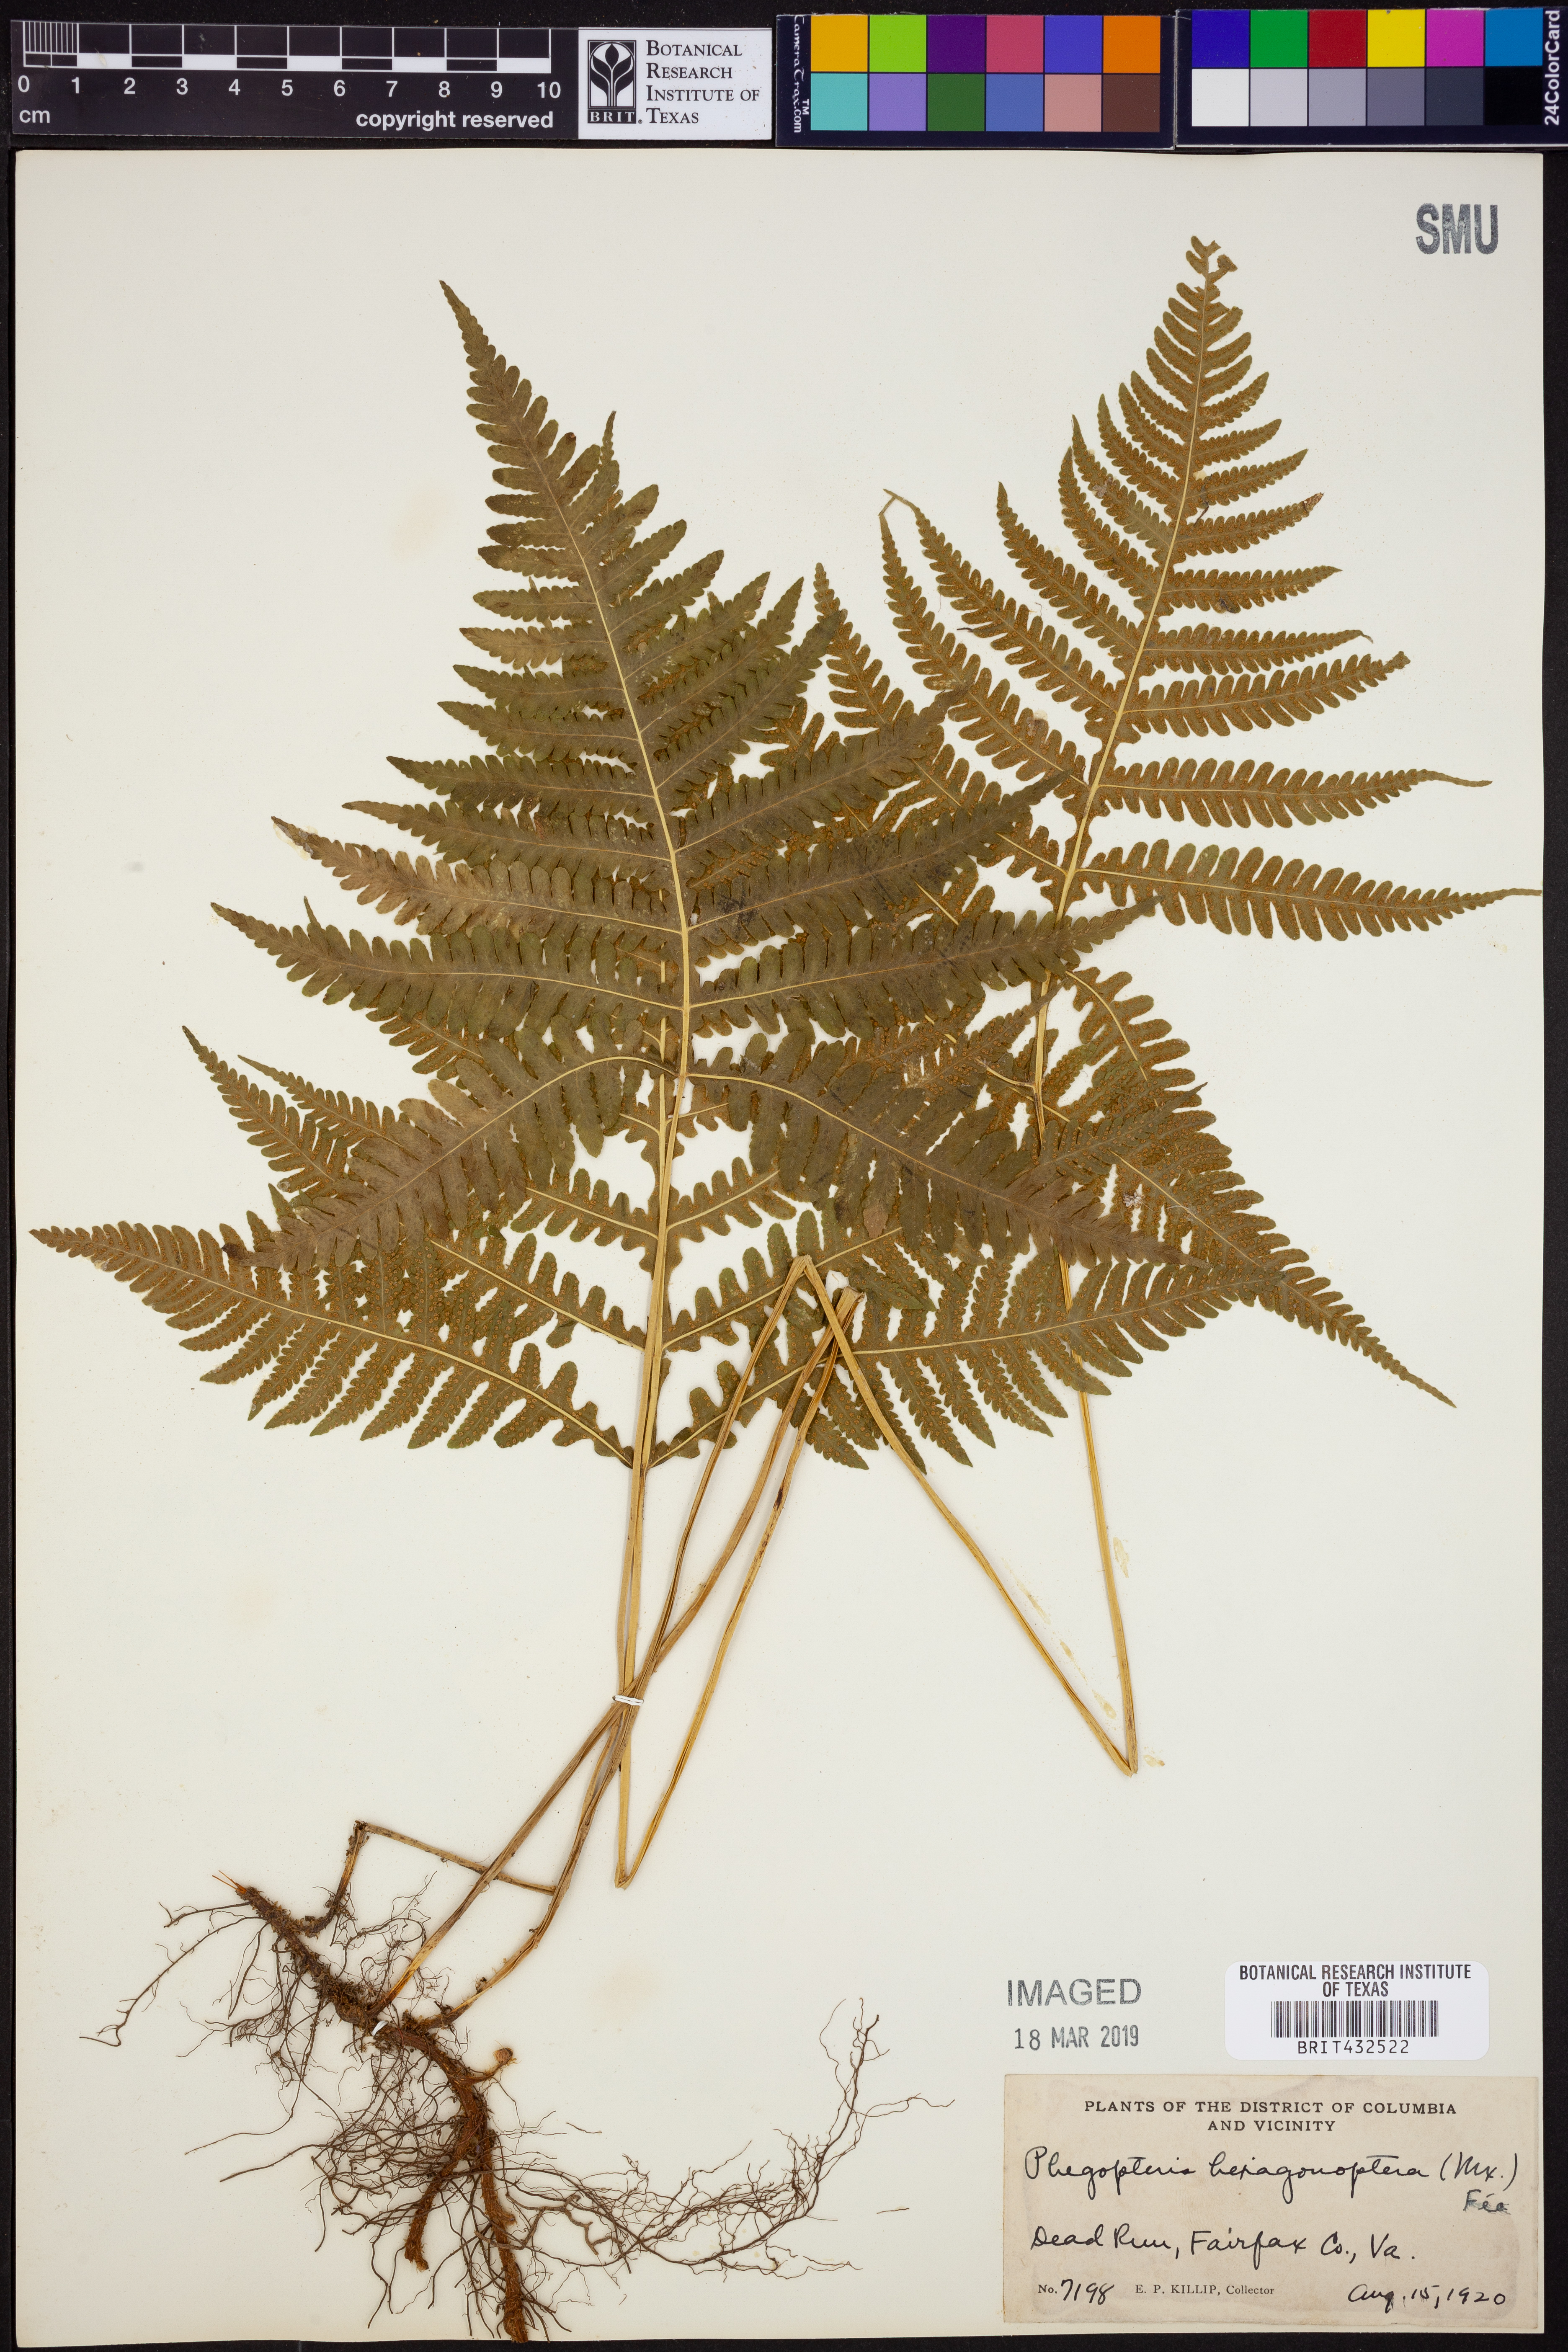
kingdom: Plantae
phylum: Tracheophyta
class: Polypodiopsida
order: Polypodiales
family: Thelypteridaceae
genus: Phegopteris
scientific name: Phegopteris hexagonoptera
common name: Broad beech fern
